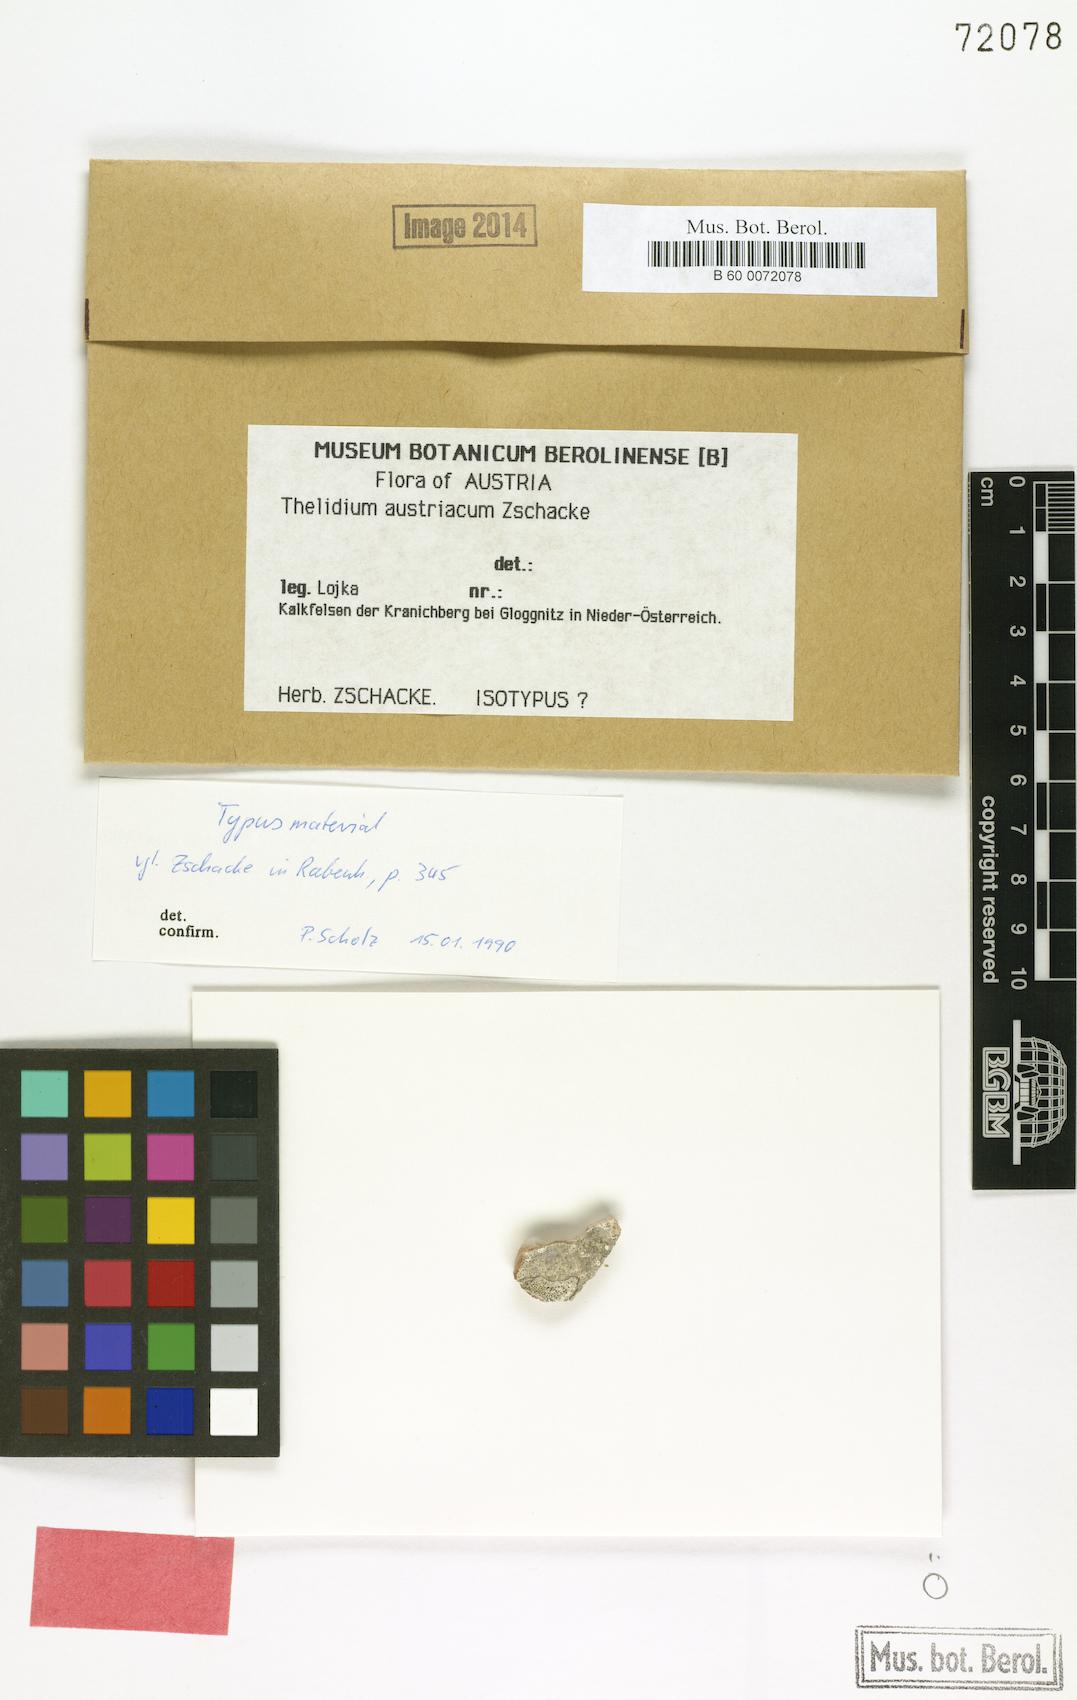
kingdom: Fungi
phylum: Ascomycota
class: Eurotiomycetes
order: Verrucariales
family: Verrucariaceae
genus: Thelidium
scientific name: Thelidium austriacum
